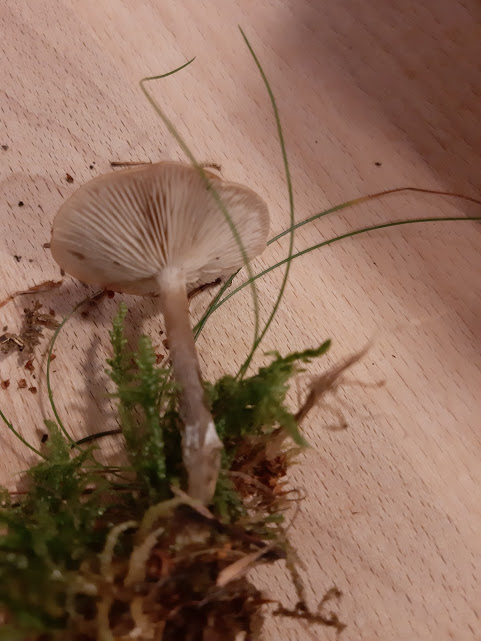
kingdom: Fungi
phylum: Basidiomycota
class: Agaricomycetes
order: Agaricales
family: Tricholomataceae
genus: Clitocybe
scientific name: Clitocybe
